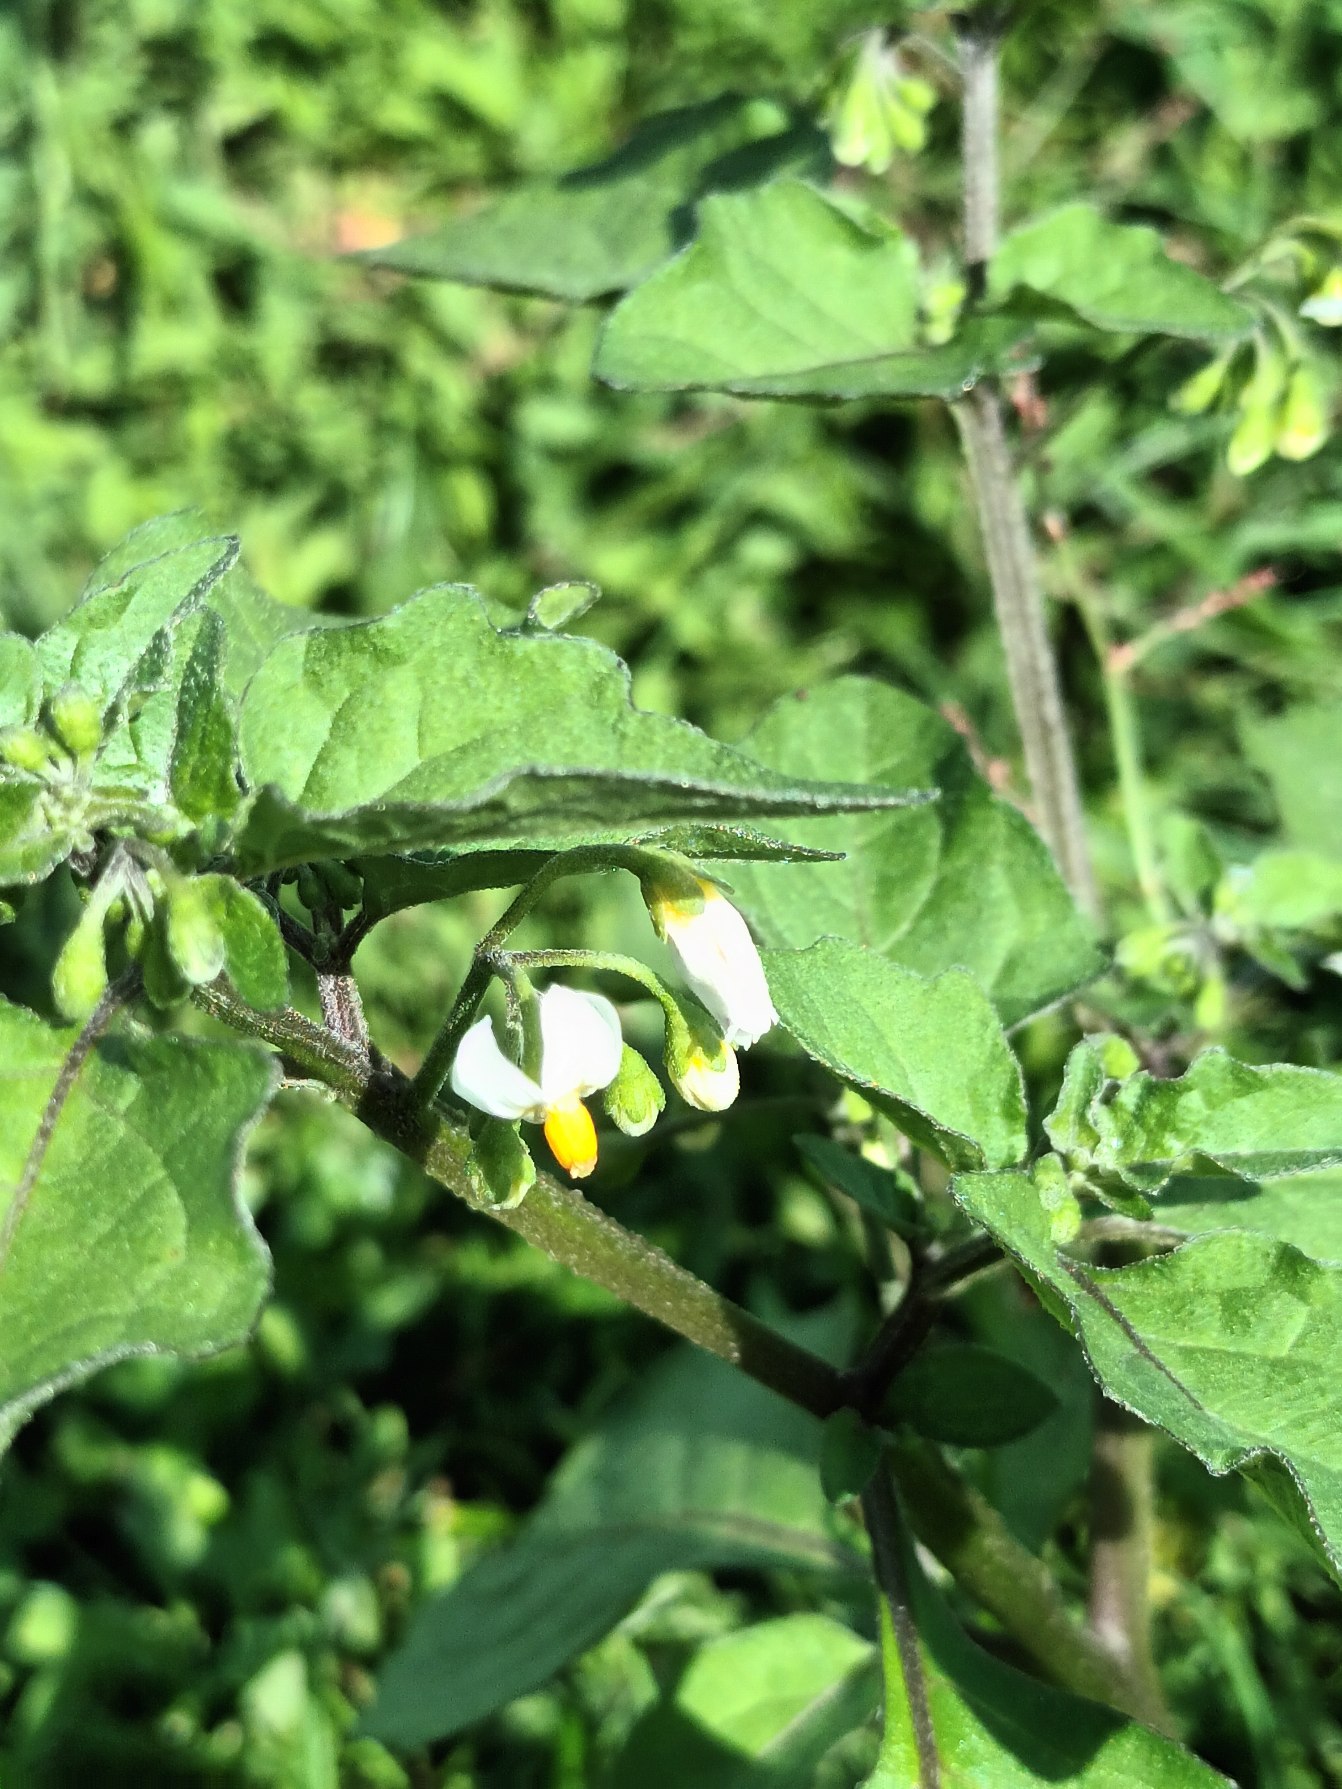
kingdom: Plantae
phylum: Tracheophyta
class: Magnoliopsida
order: Solanales
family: Solanaceae
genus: Solanum
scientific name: Solanum nigrum
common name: Sort natskygge
